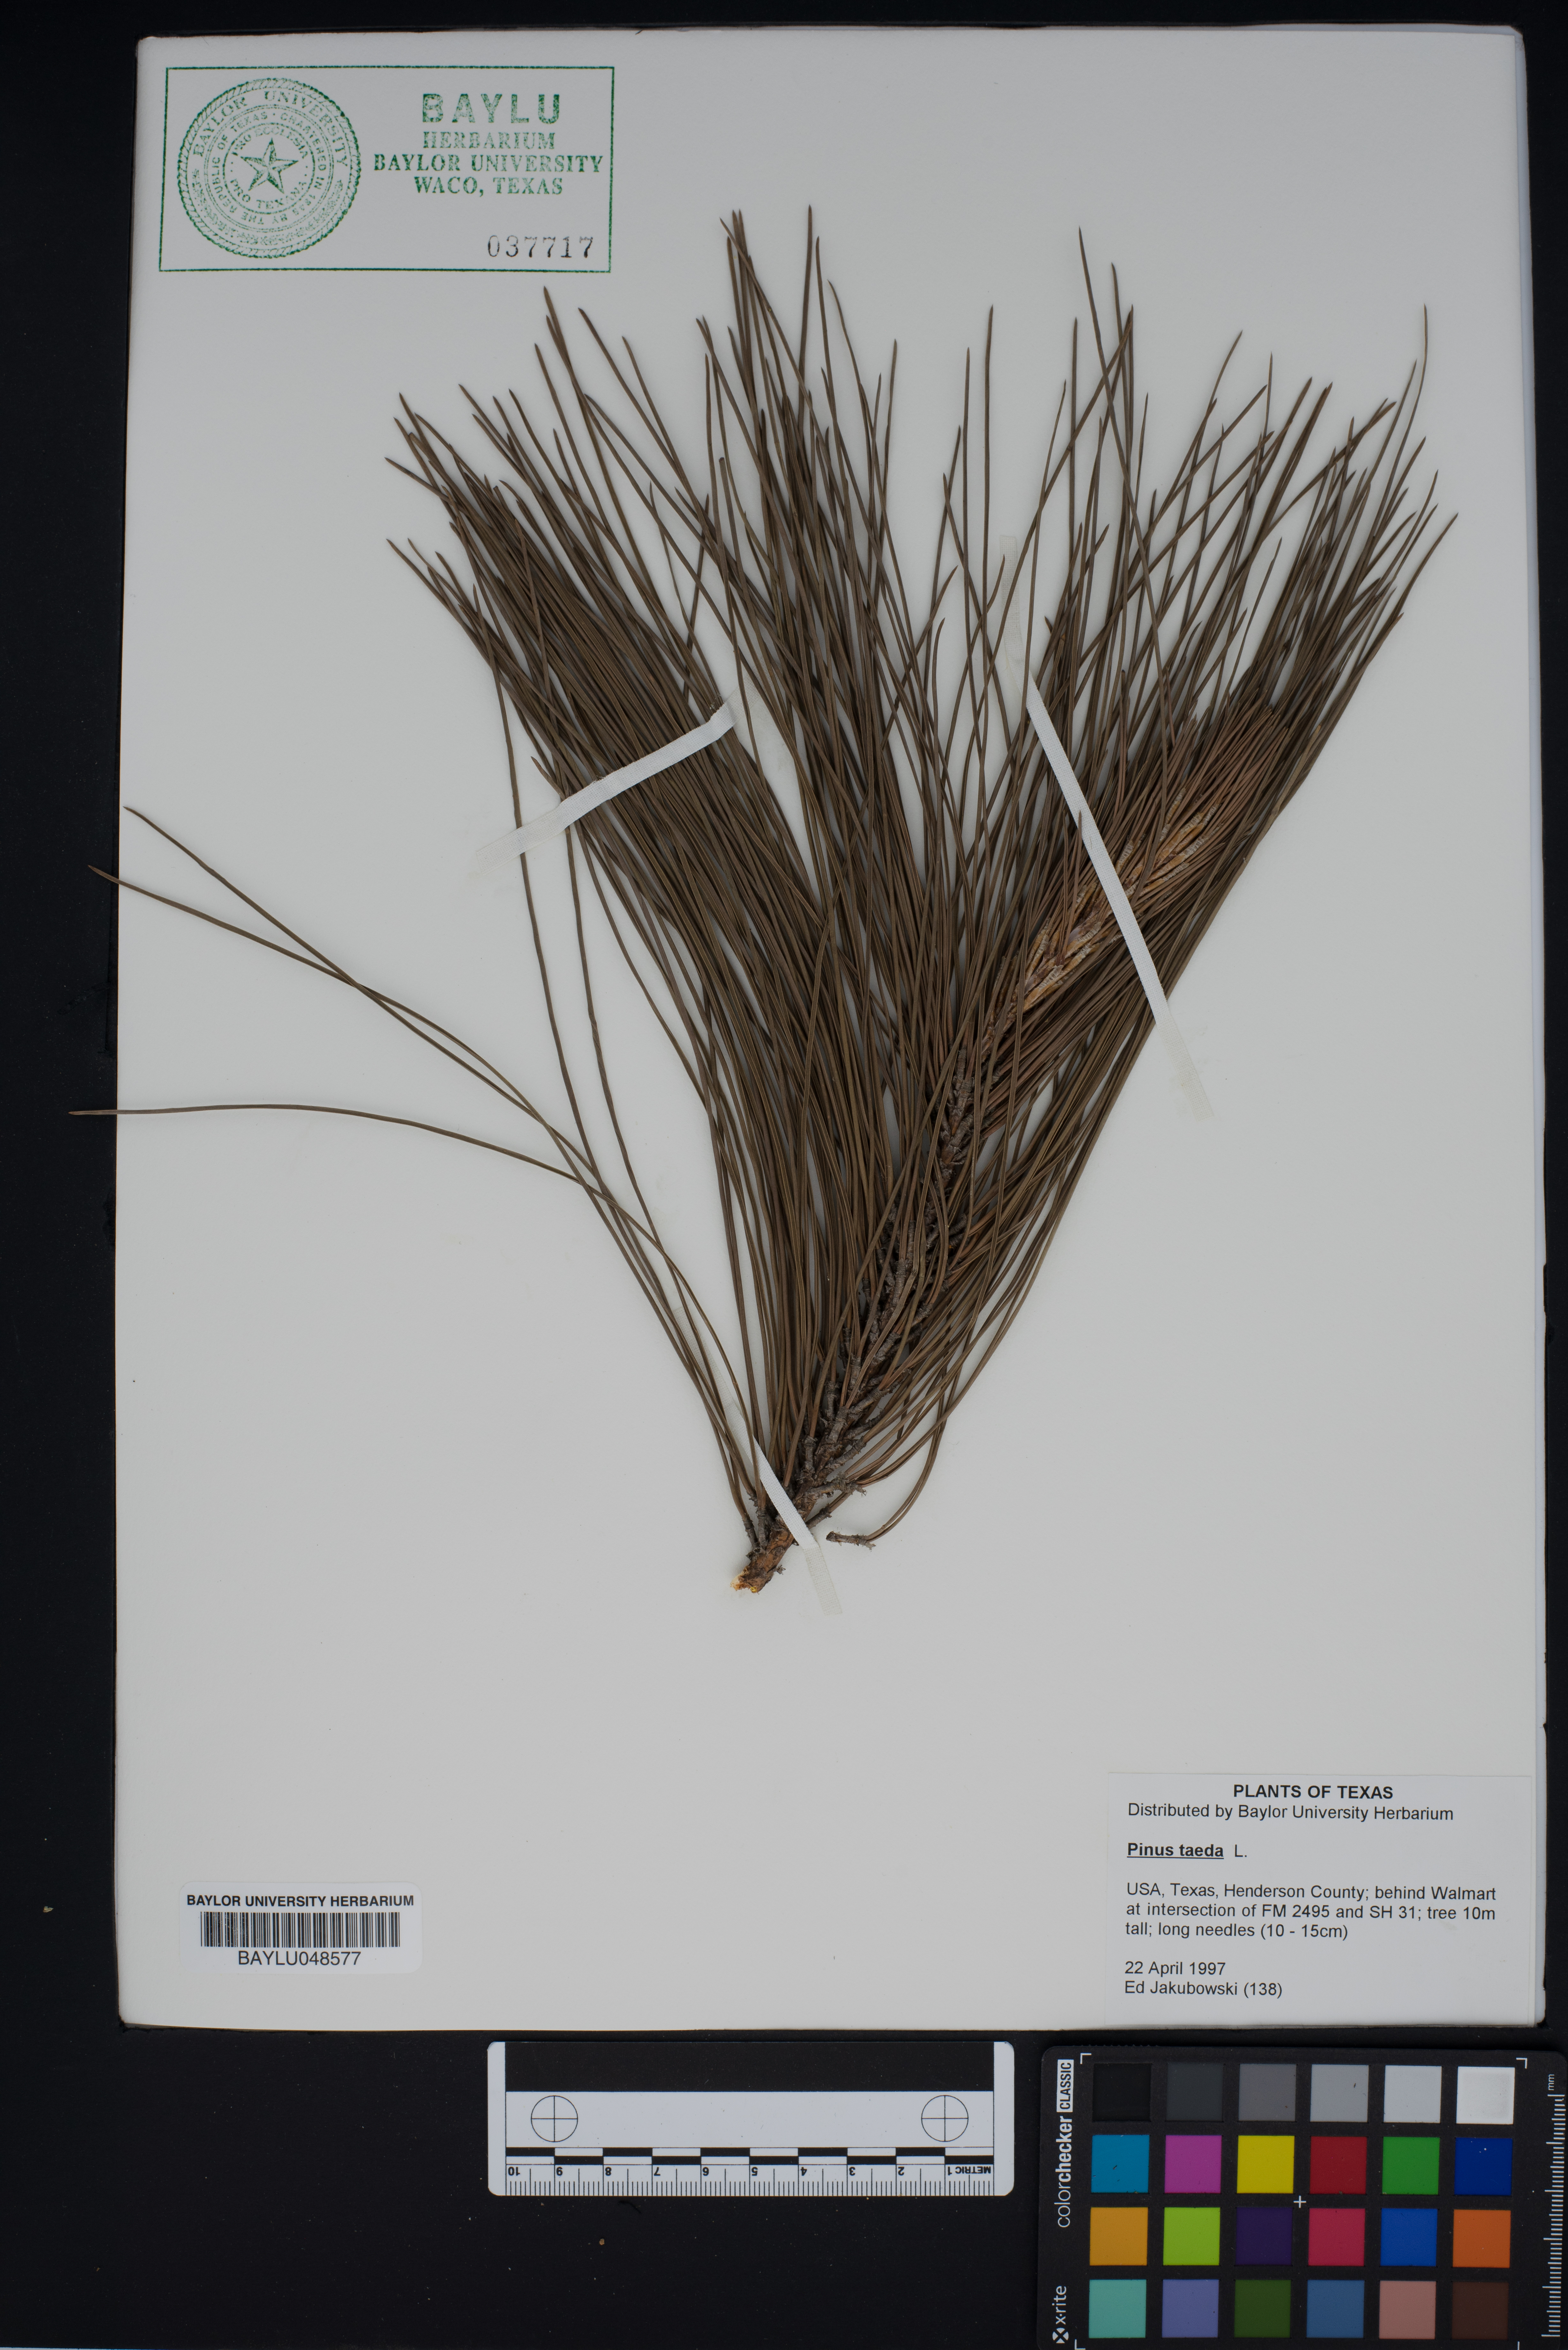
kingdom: Plantae
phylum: Tracheophyta
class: Pinopsida
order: Pinales
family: Pinaceae
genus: Pinus
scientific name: Pinus taeda
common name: Loblolly pine
